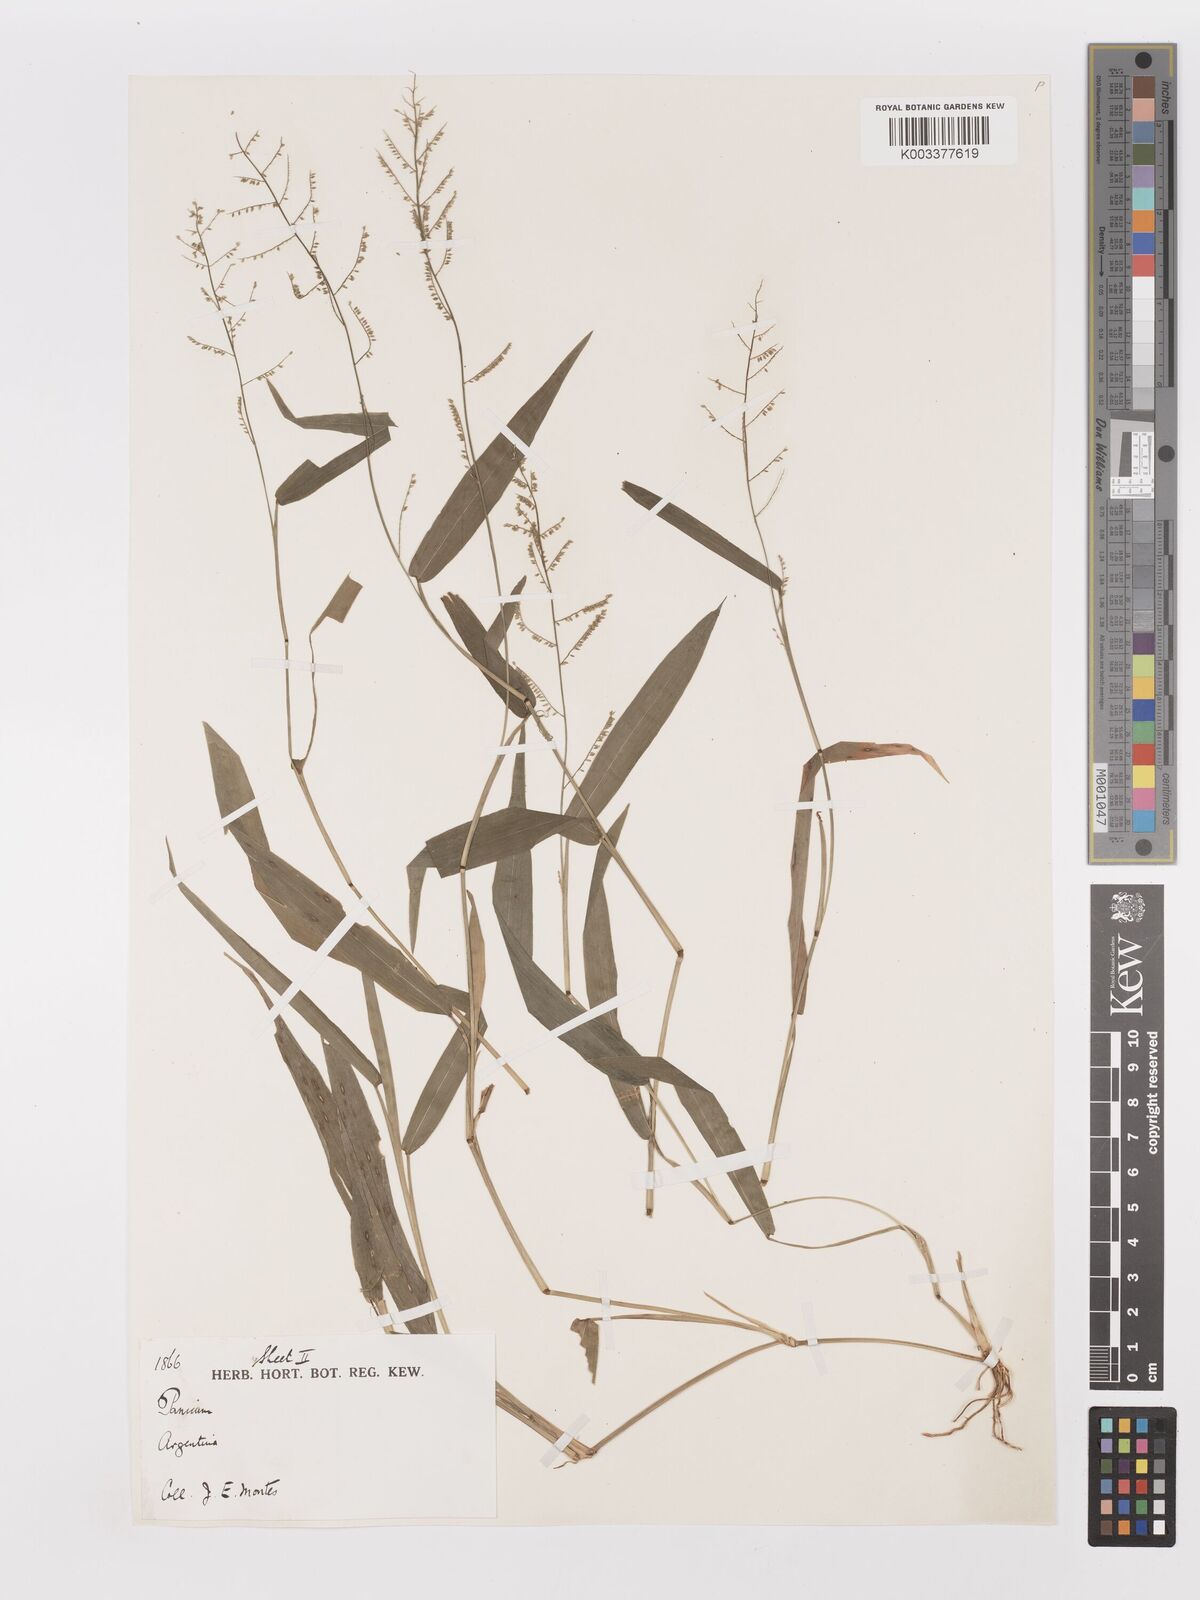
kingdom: Plantae
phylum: Tracheophyta
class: Liliopsida
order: Poales
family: Poaceae
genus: Panicum
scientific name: Panicum
